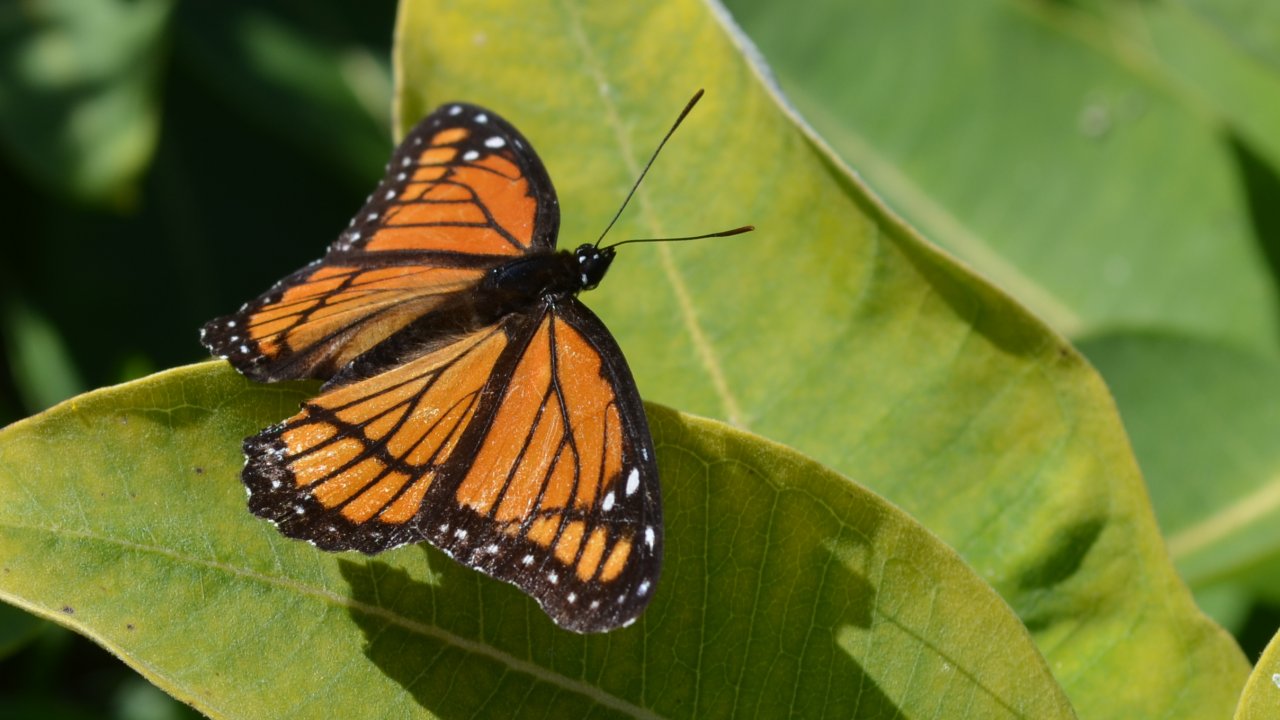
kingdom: Animalia
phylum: Arthropoda
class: Insecta
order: Lepidoptera
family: Nymphalidae
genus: Limenitis
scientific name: Limenitis archippus
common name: Viceroy
